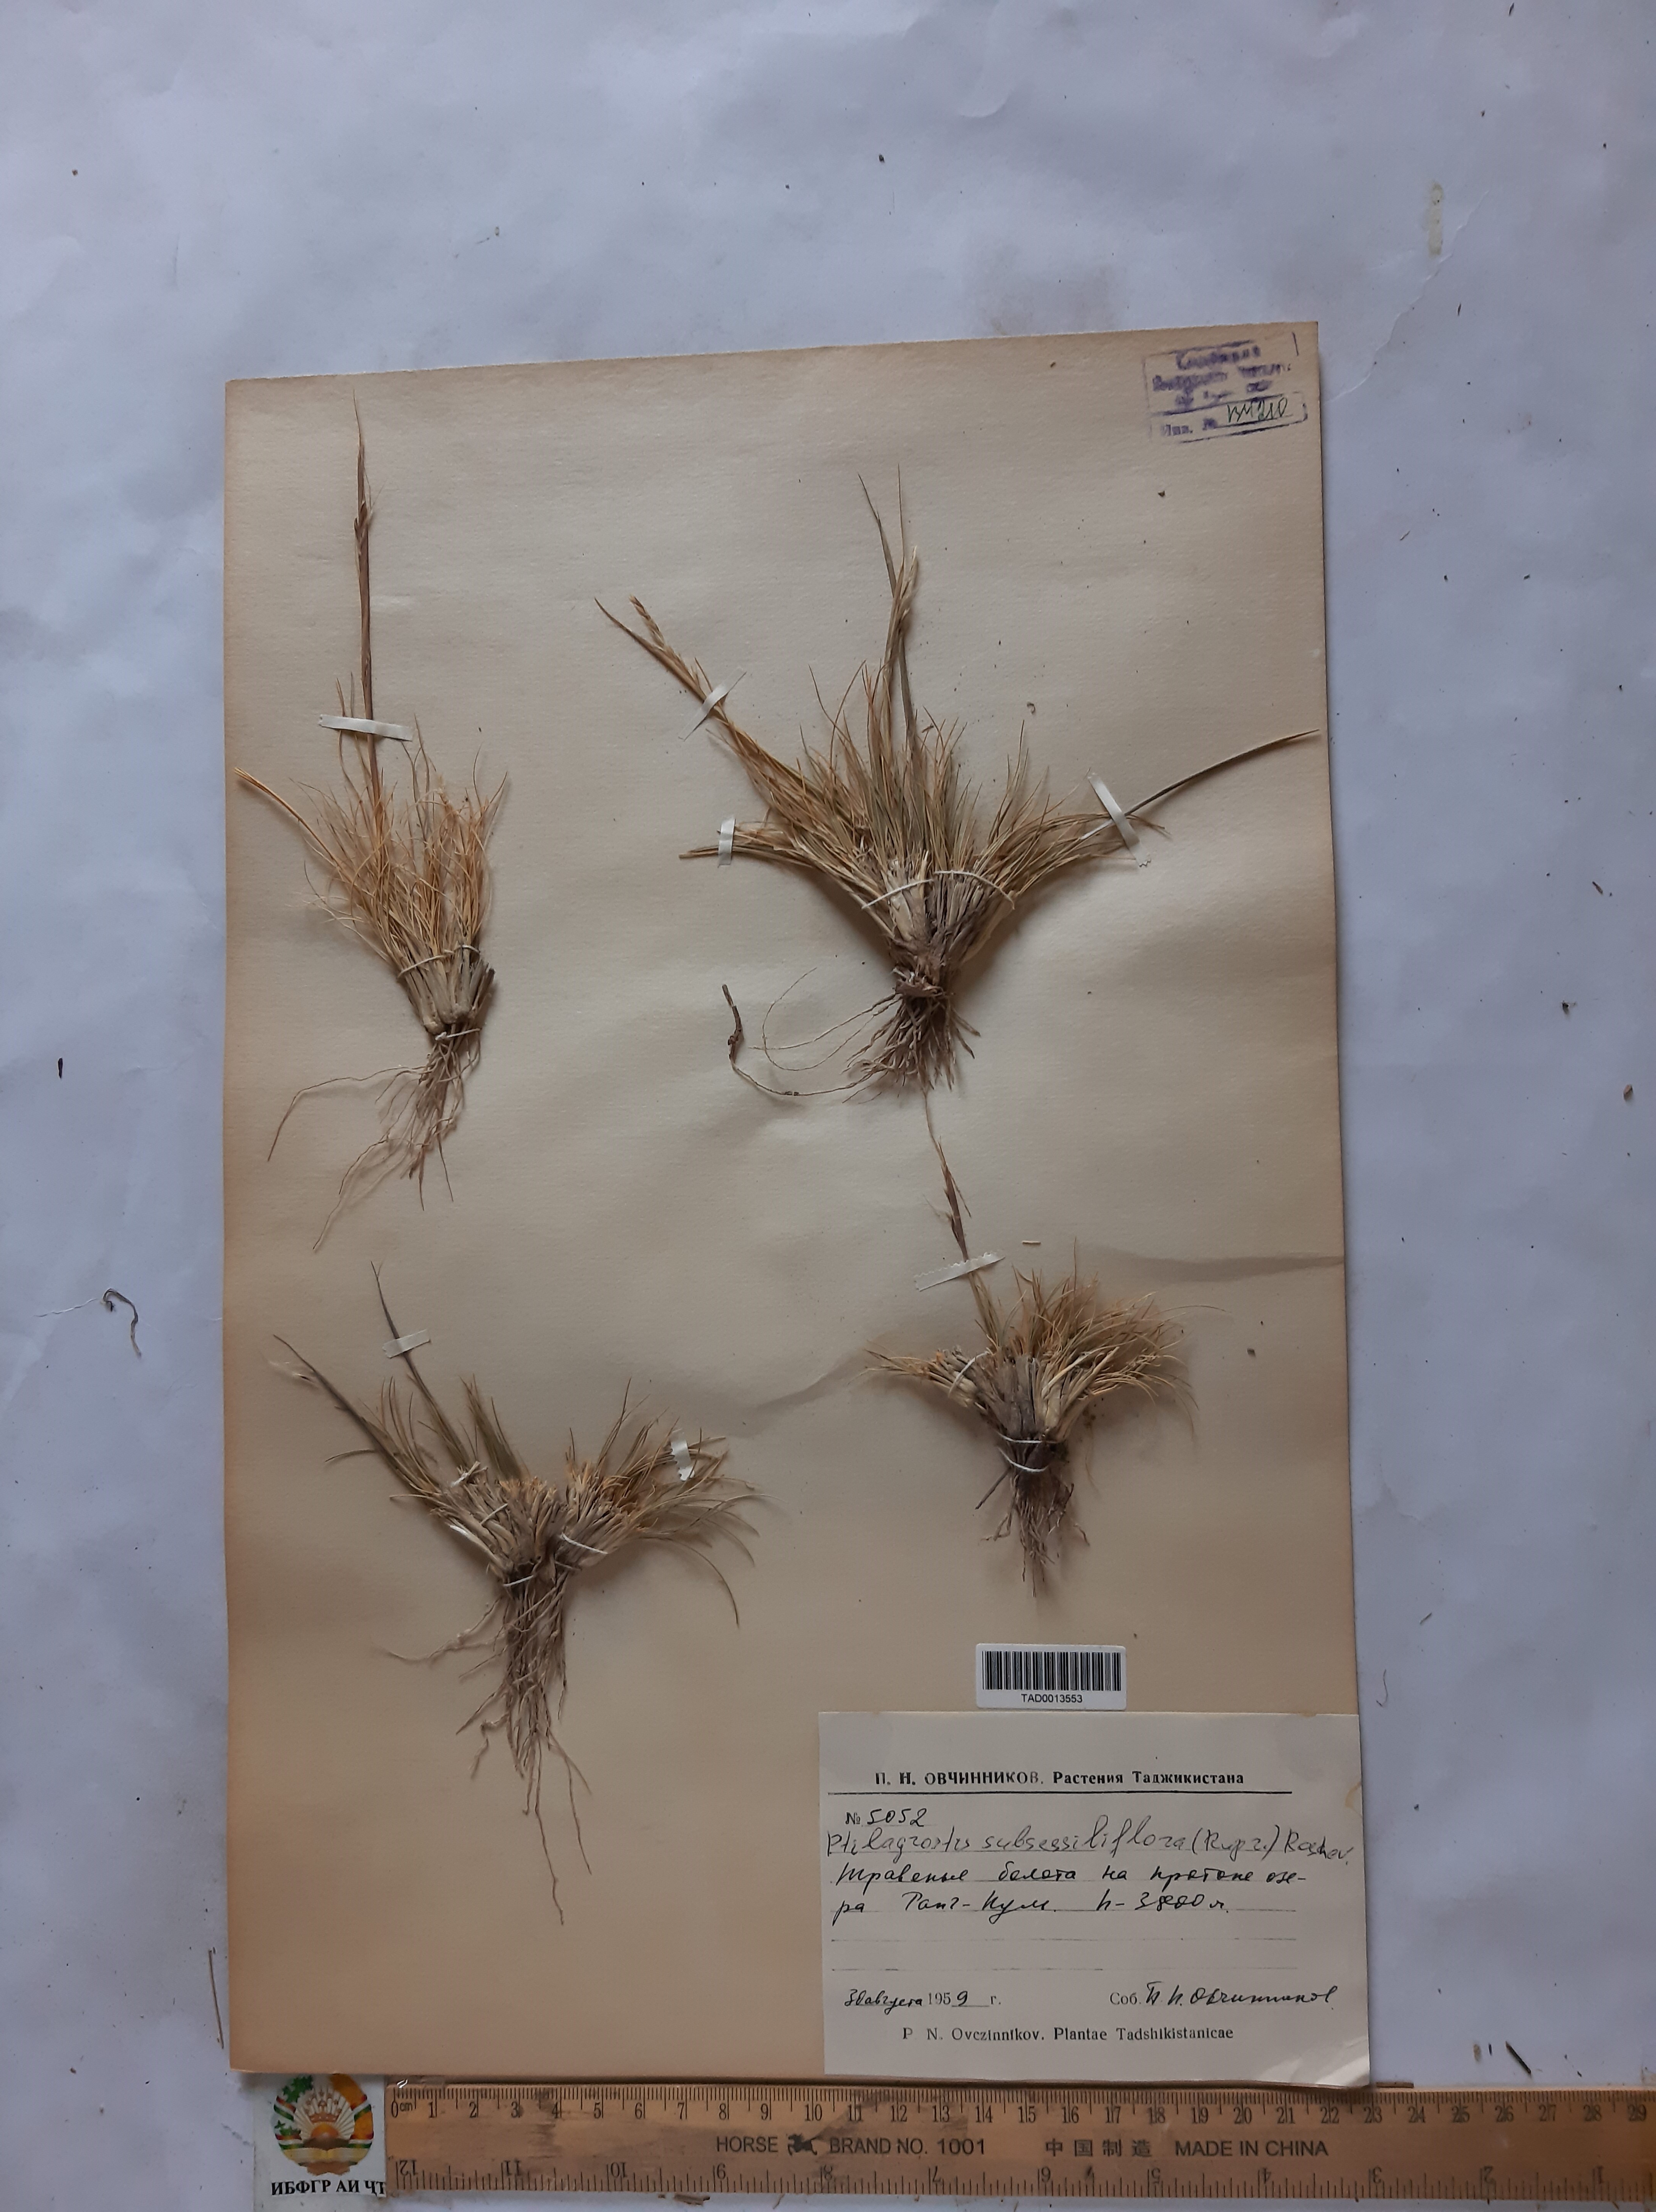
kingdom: Plantae
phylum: Tracheophyta
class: Liliopsida
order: Poales
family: Poaceae
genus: Stipa
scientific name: Stipa subsessiliflora
